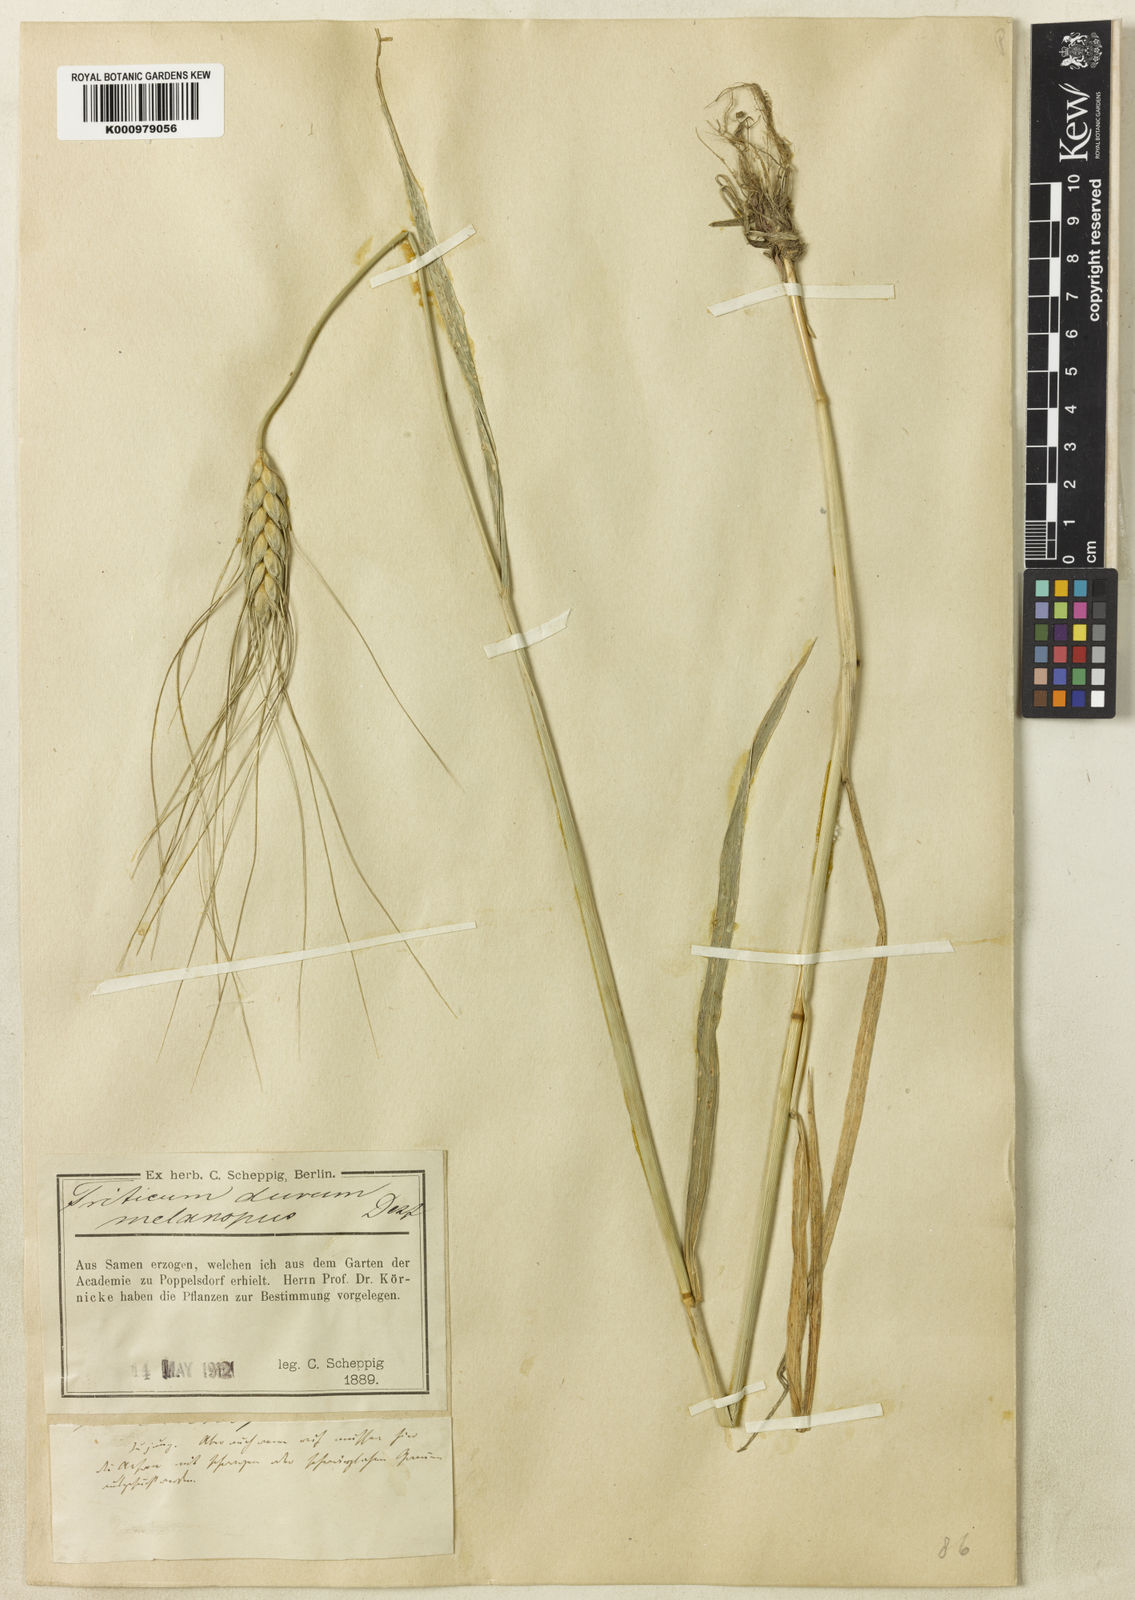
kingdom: Plantae
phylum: Tracheophyta
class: Liliopsida
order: Poales
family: Poaceae
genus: Triticum
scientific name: Triticum turgidum
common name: Rivet wheat
